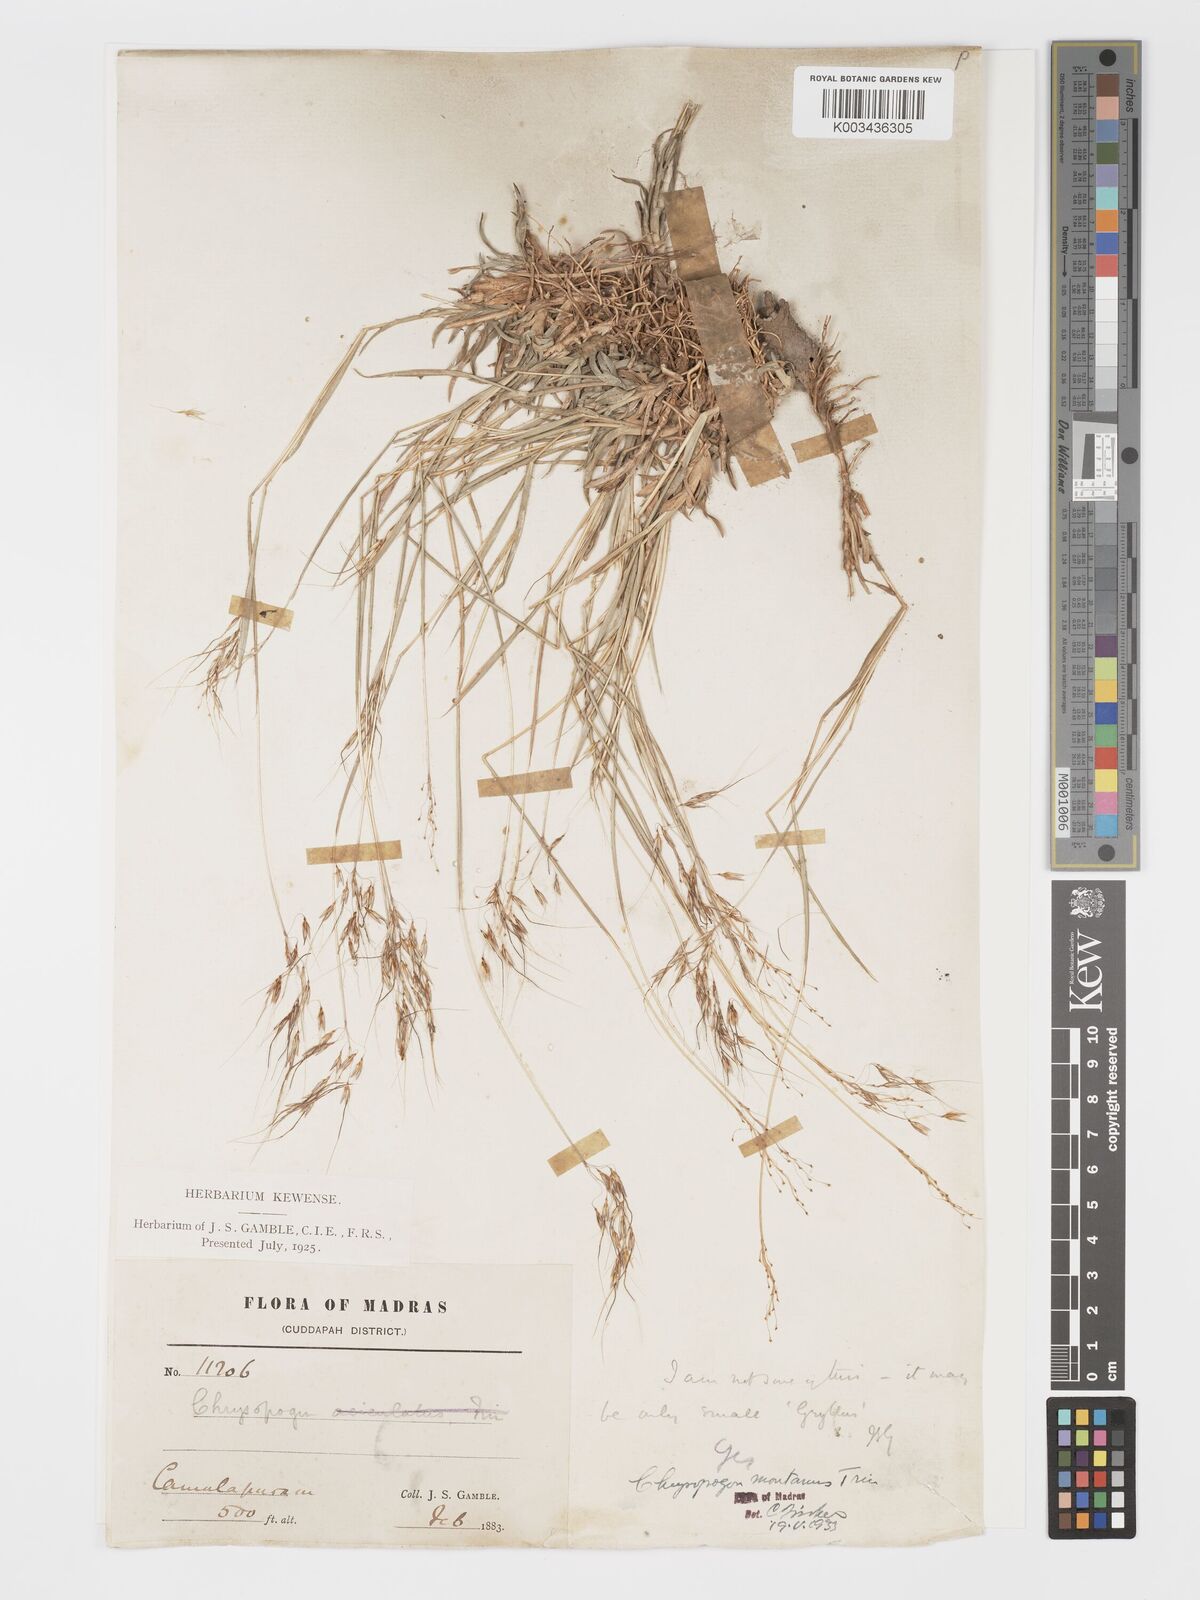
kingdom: Plantae
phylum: Tracheophyta
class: Liliopsida
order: Poales
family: Poaceae
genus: Chrysopogon
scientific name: Chrysopogon fulvus
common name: Red false beardgrass
